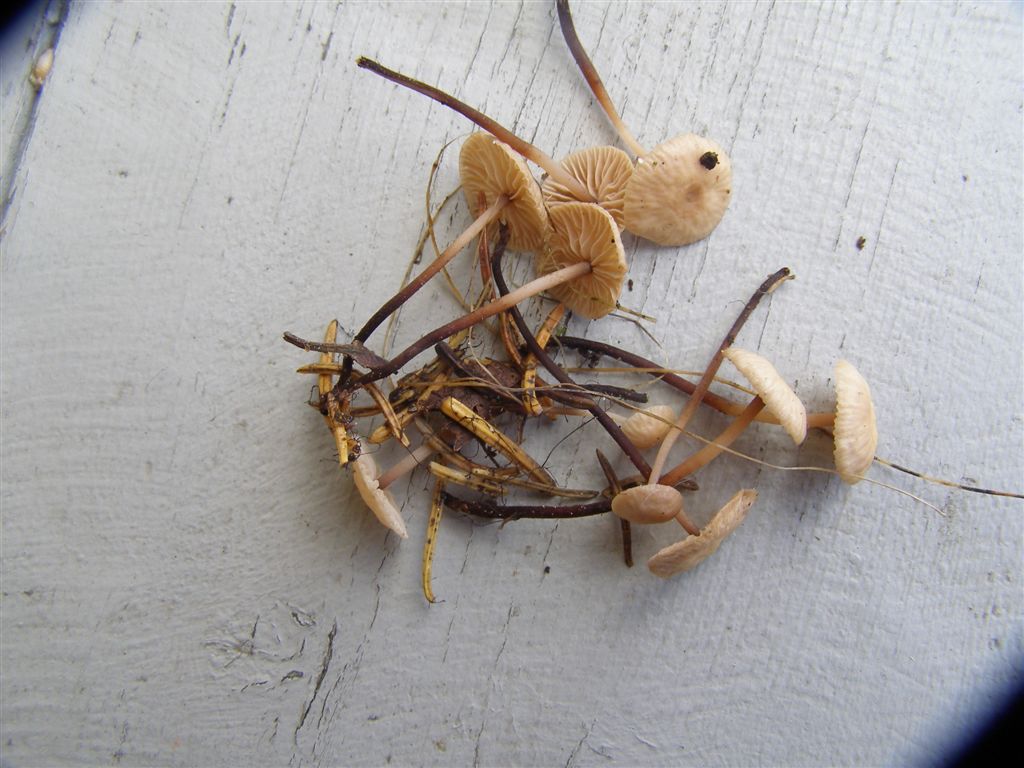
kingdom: Fungi
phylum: Basidiomycota
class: Agaricomycetes
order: Agaricales
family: Omphalotaceae
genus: Paragymnopus
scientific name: Paragymnopus perforans
